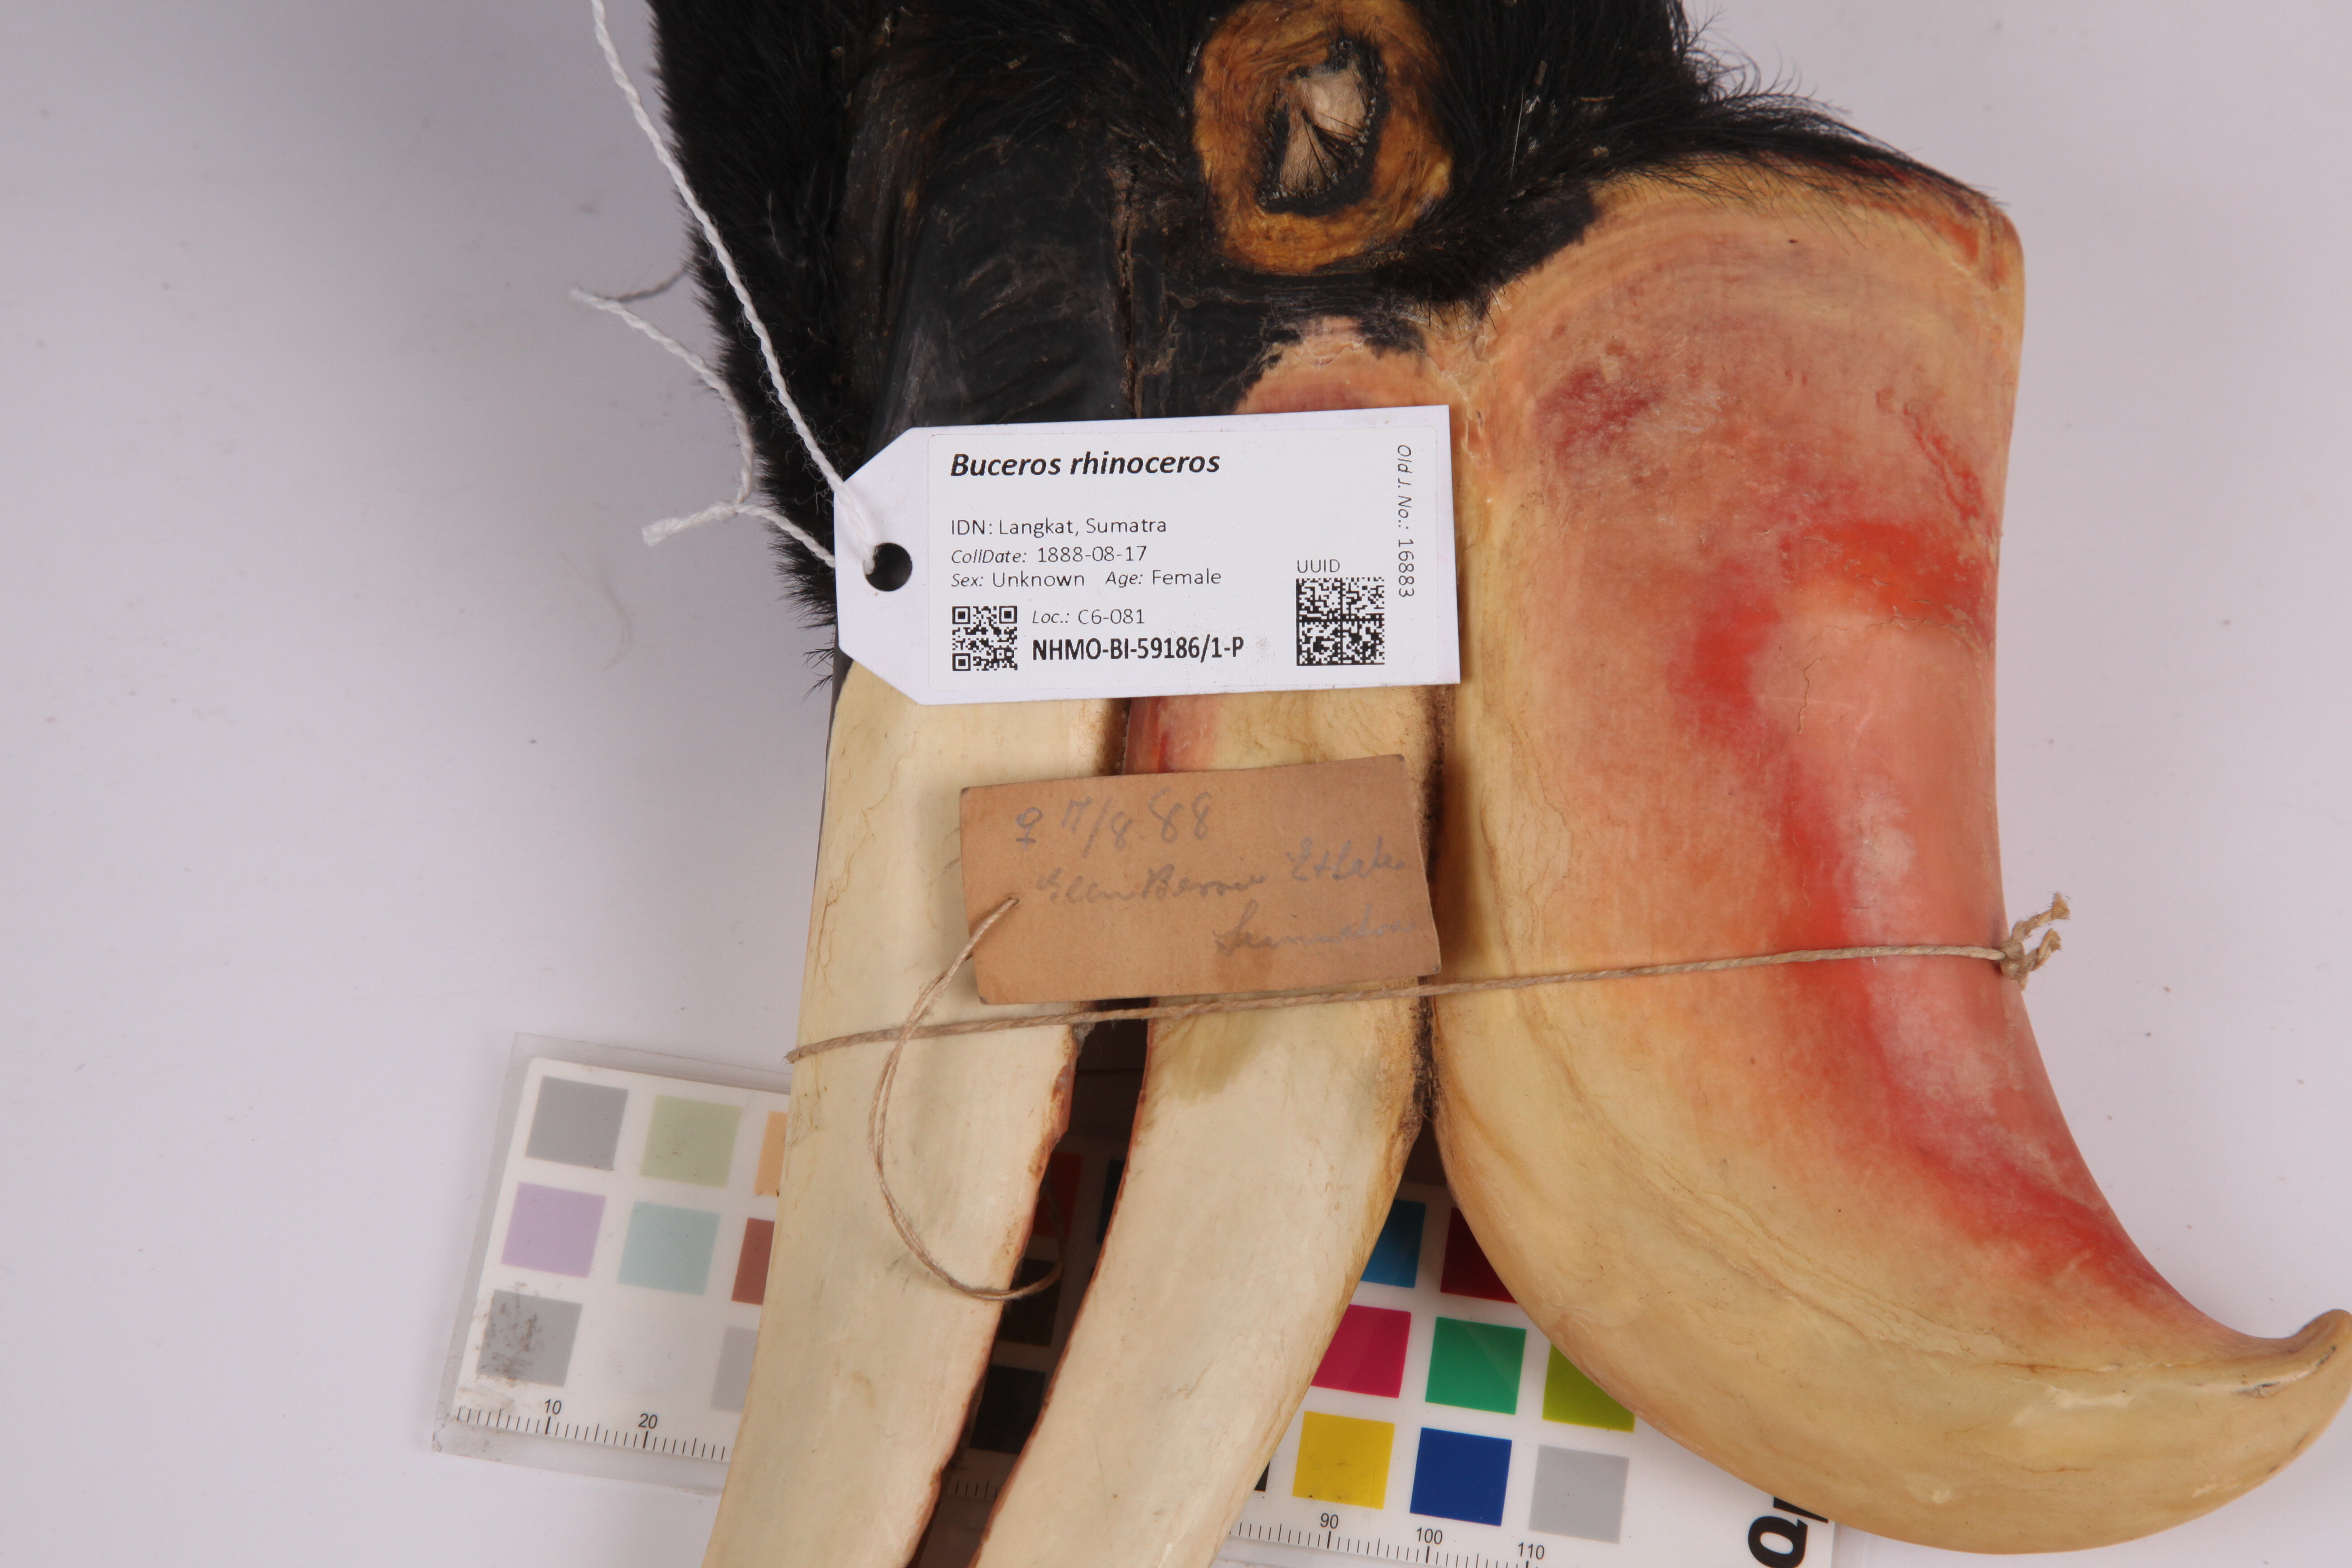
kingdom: Animalia
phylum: Chordata
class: Aves
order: Bucerotiformes
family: Bucerotidae
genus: Buceros
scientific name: Buceros rhinoceros
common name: Rhinoceros hornbill
